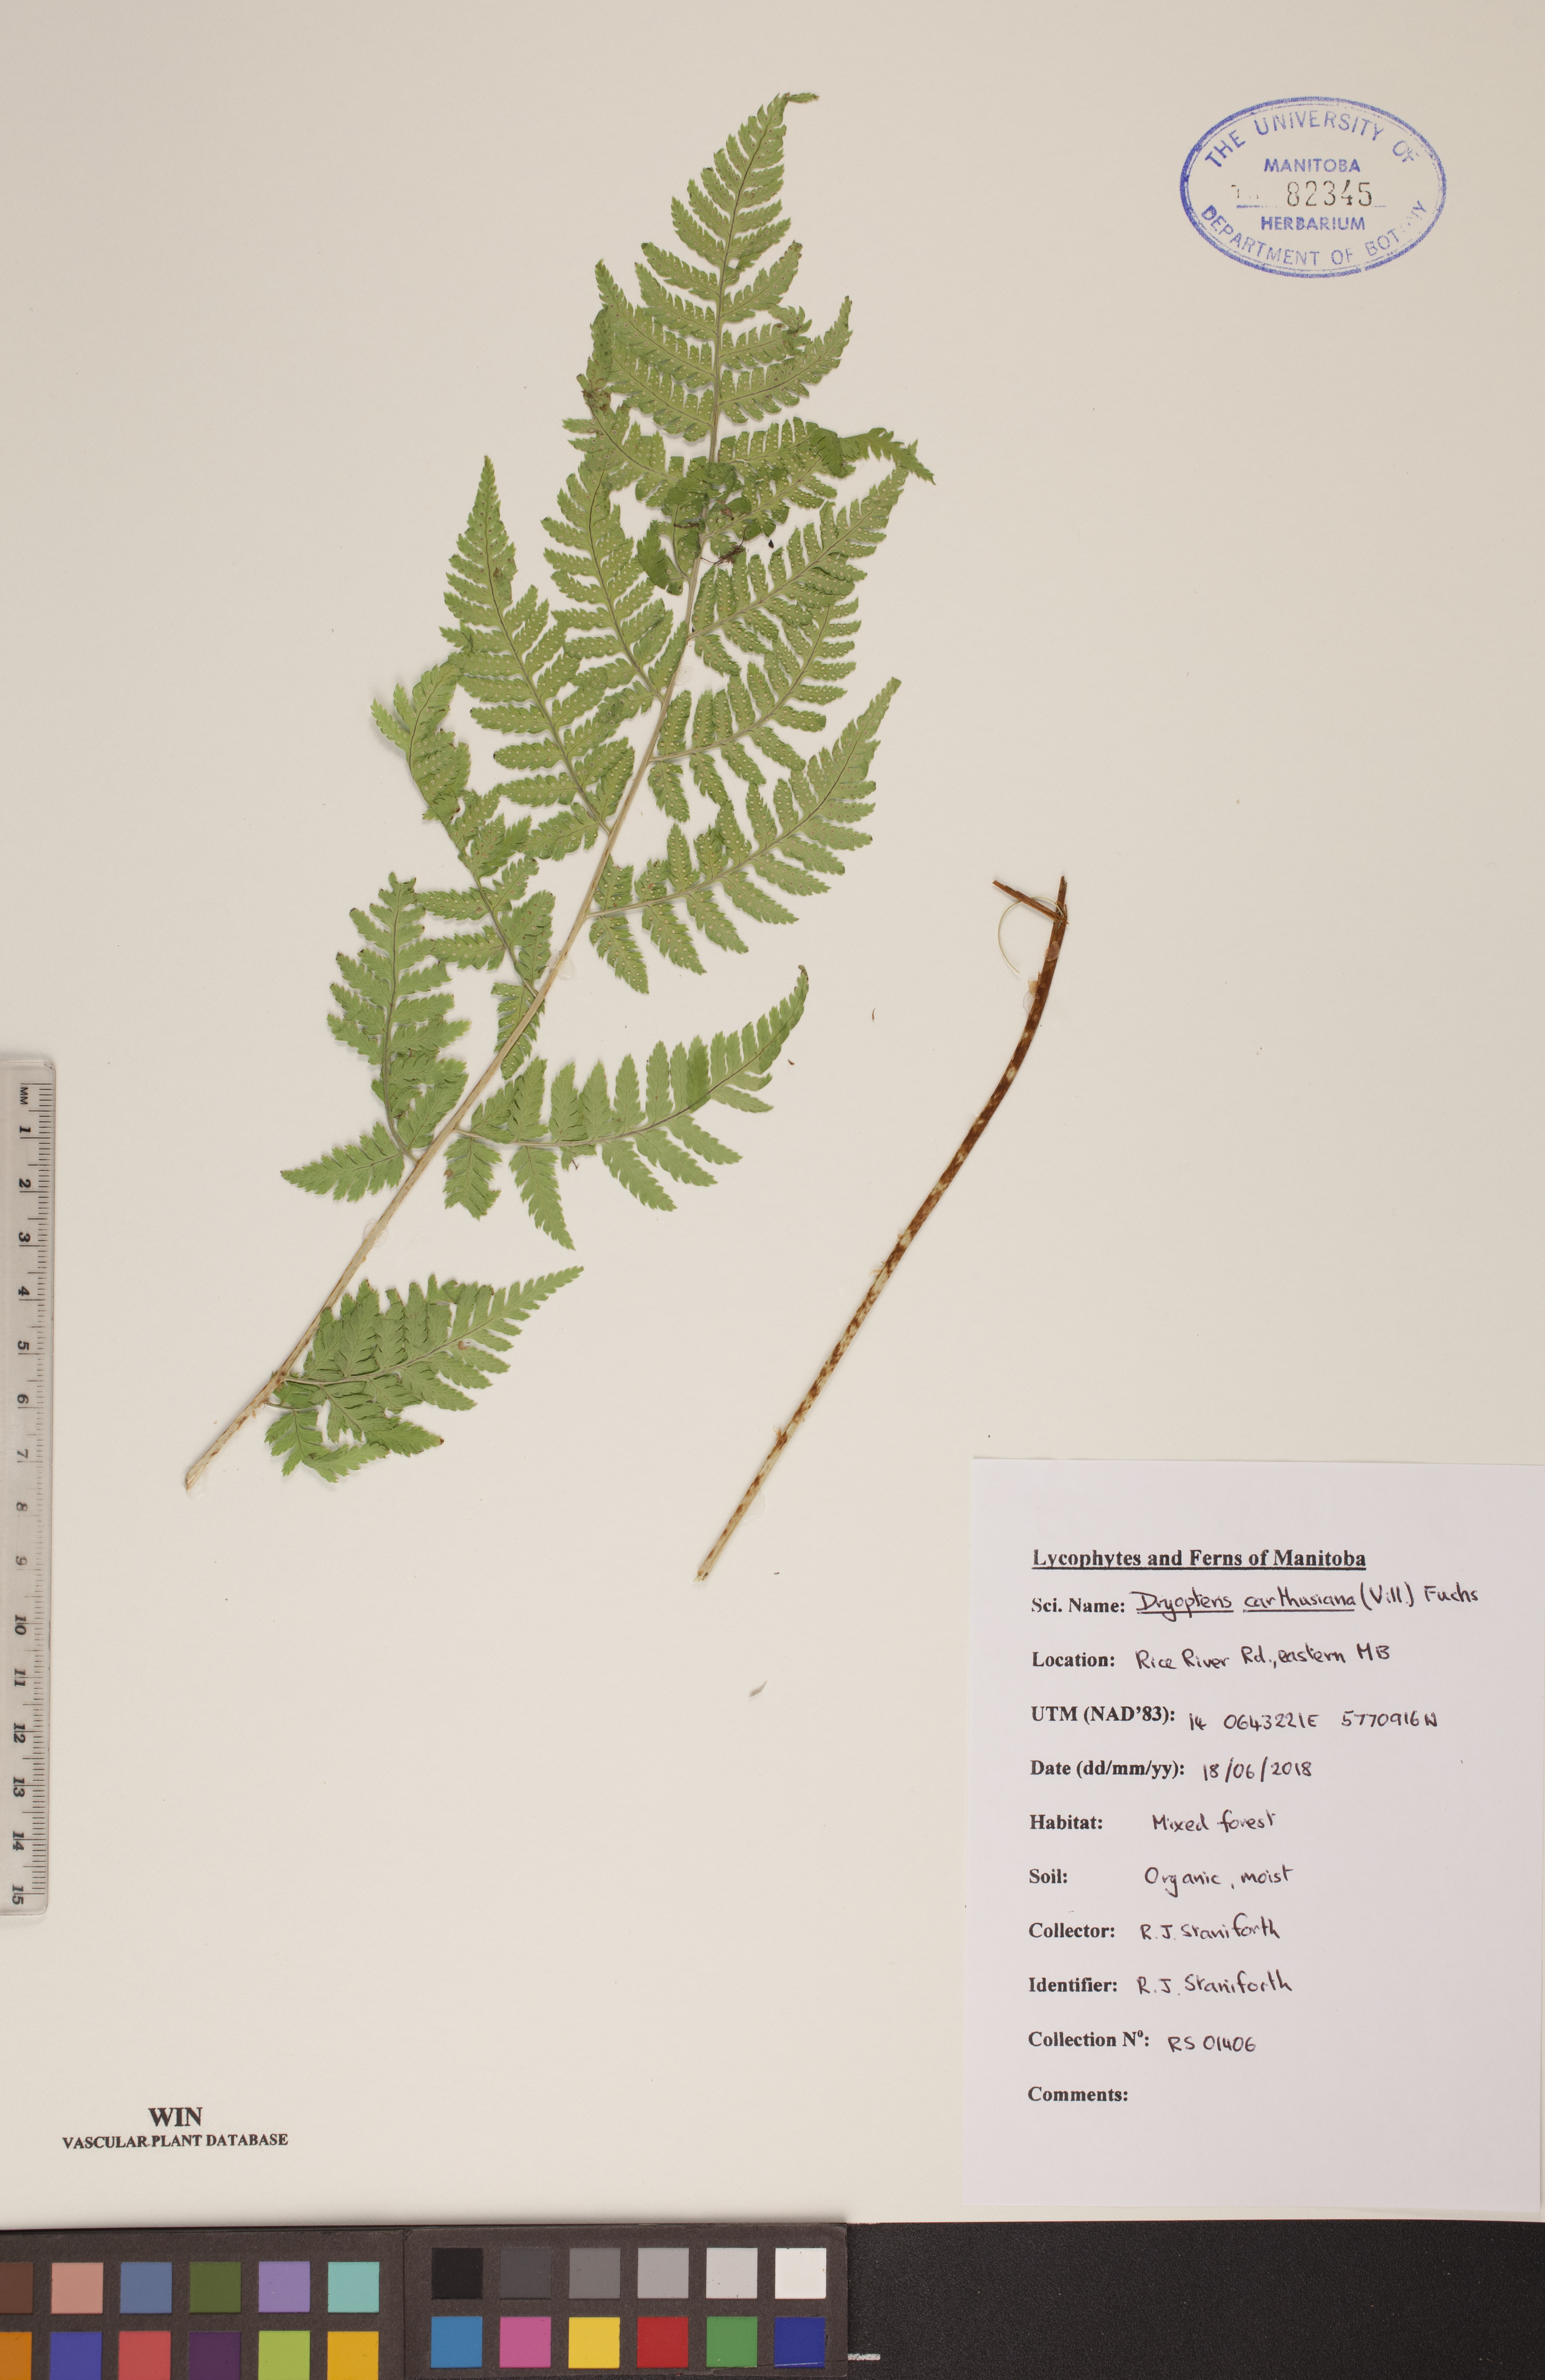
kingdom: Plantae
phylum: Tracheophyta
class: Polypodiopsida
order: Polypodiales
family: Dryopteridaceae
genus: Dryopteris
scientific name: Dryopteris carthusiana
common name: Narrow buckler-fern
